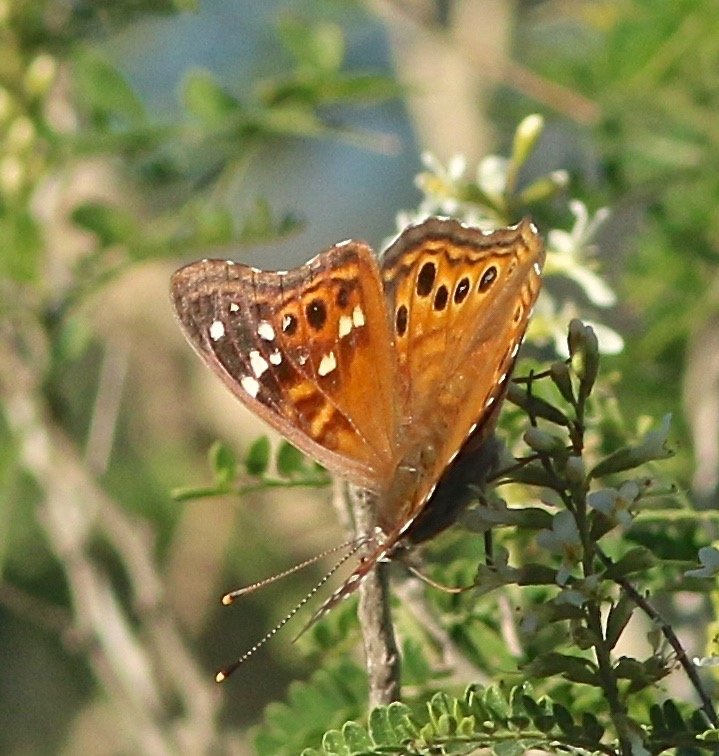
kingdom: Animalia
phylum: Arthropoda
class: Insecta
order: Lepidoptera
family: Nymphalidae
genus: Asterocampa
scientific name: Asterocampa leilia
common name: Empress Leilia
